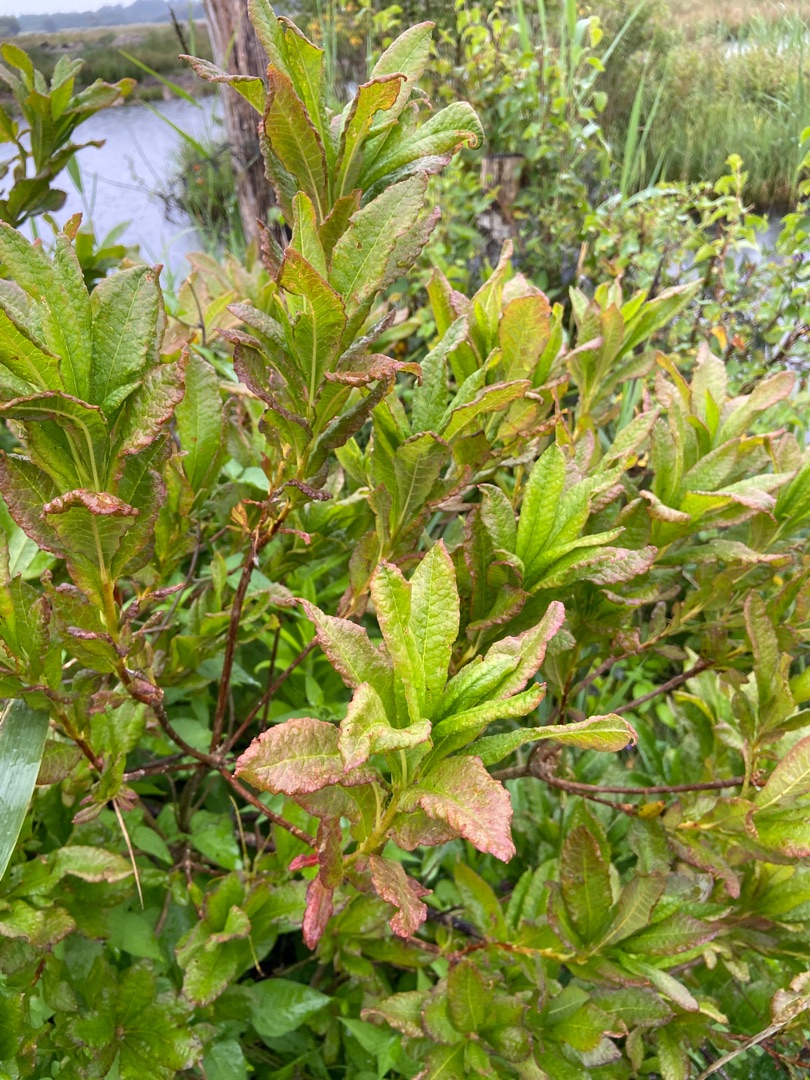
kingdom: Plantae
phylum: Tracheophyta
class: Magnoliopsida
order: Ericales
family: Ericaceae
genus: Rhododendron
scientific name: Rhododendron
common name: Rhododendronslægten
